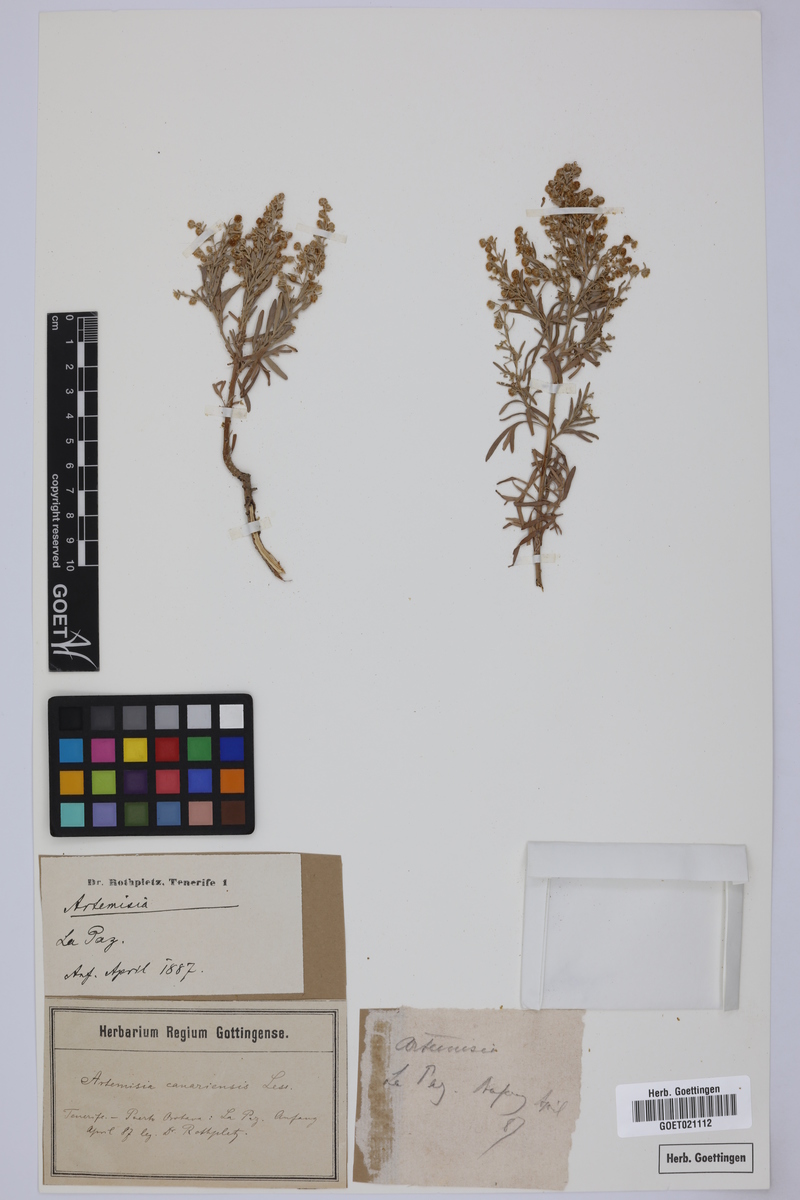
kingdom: Plantae
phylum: Tracheophyta
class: Magnoliopsida
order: Asterales
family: Asteraceae
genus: Artemisia
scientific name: Artemisia thuscula
